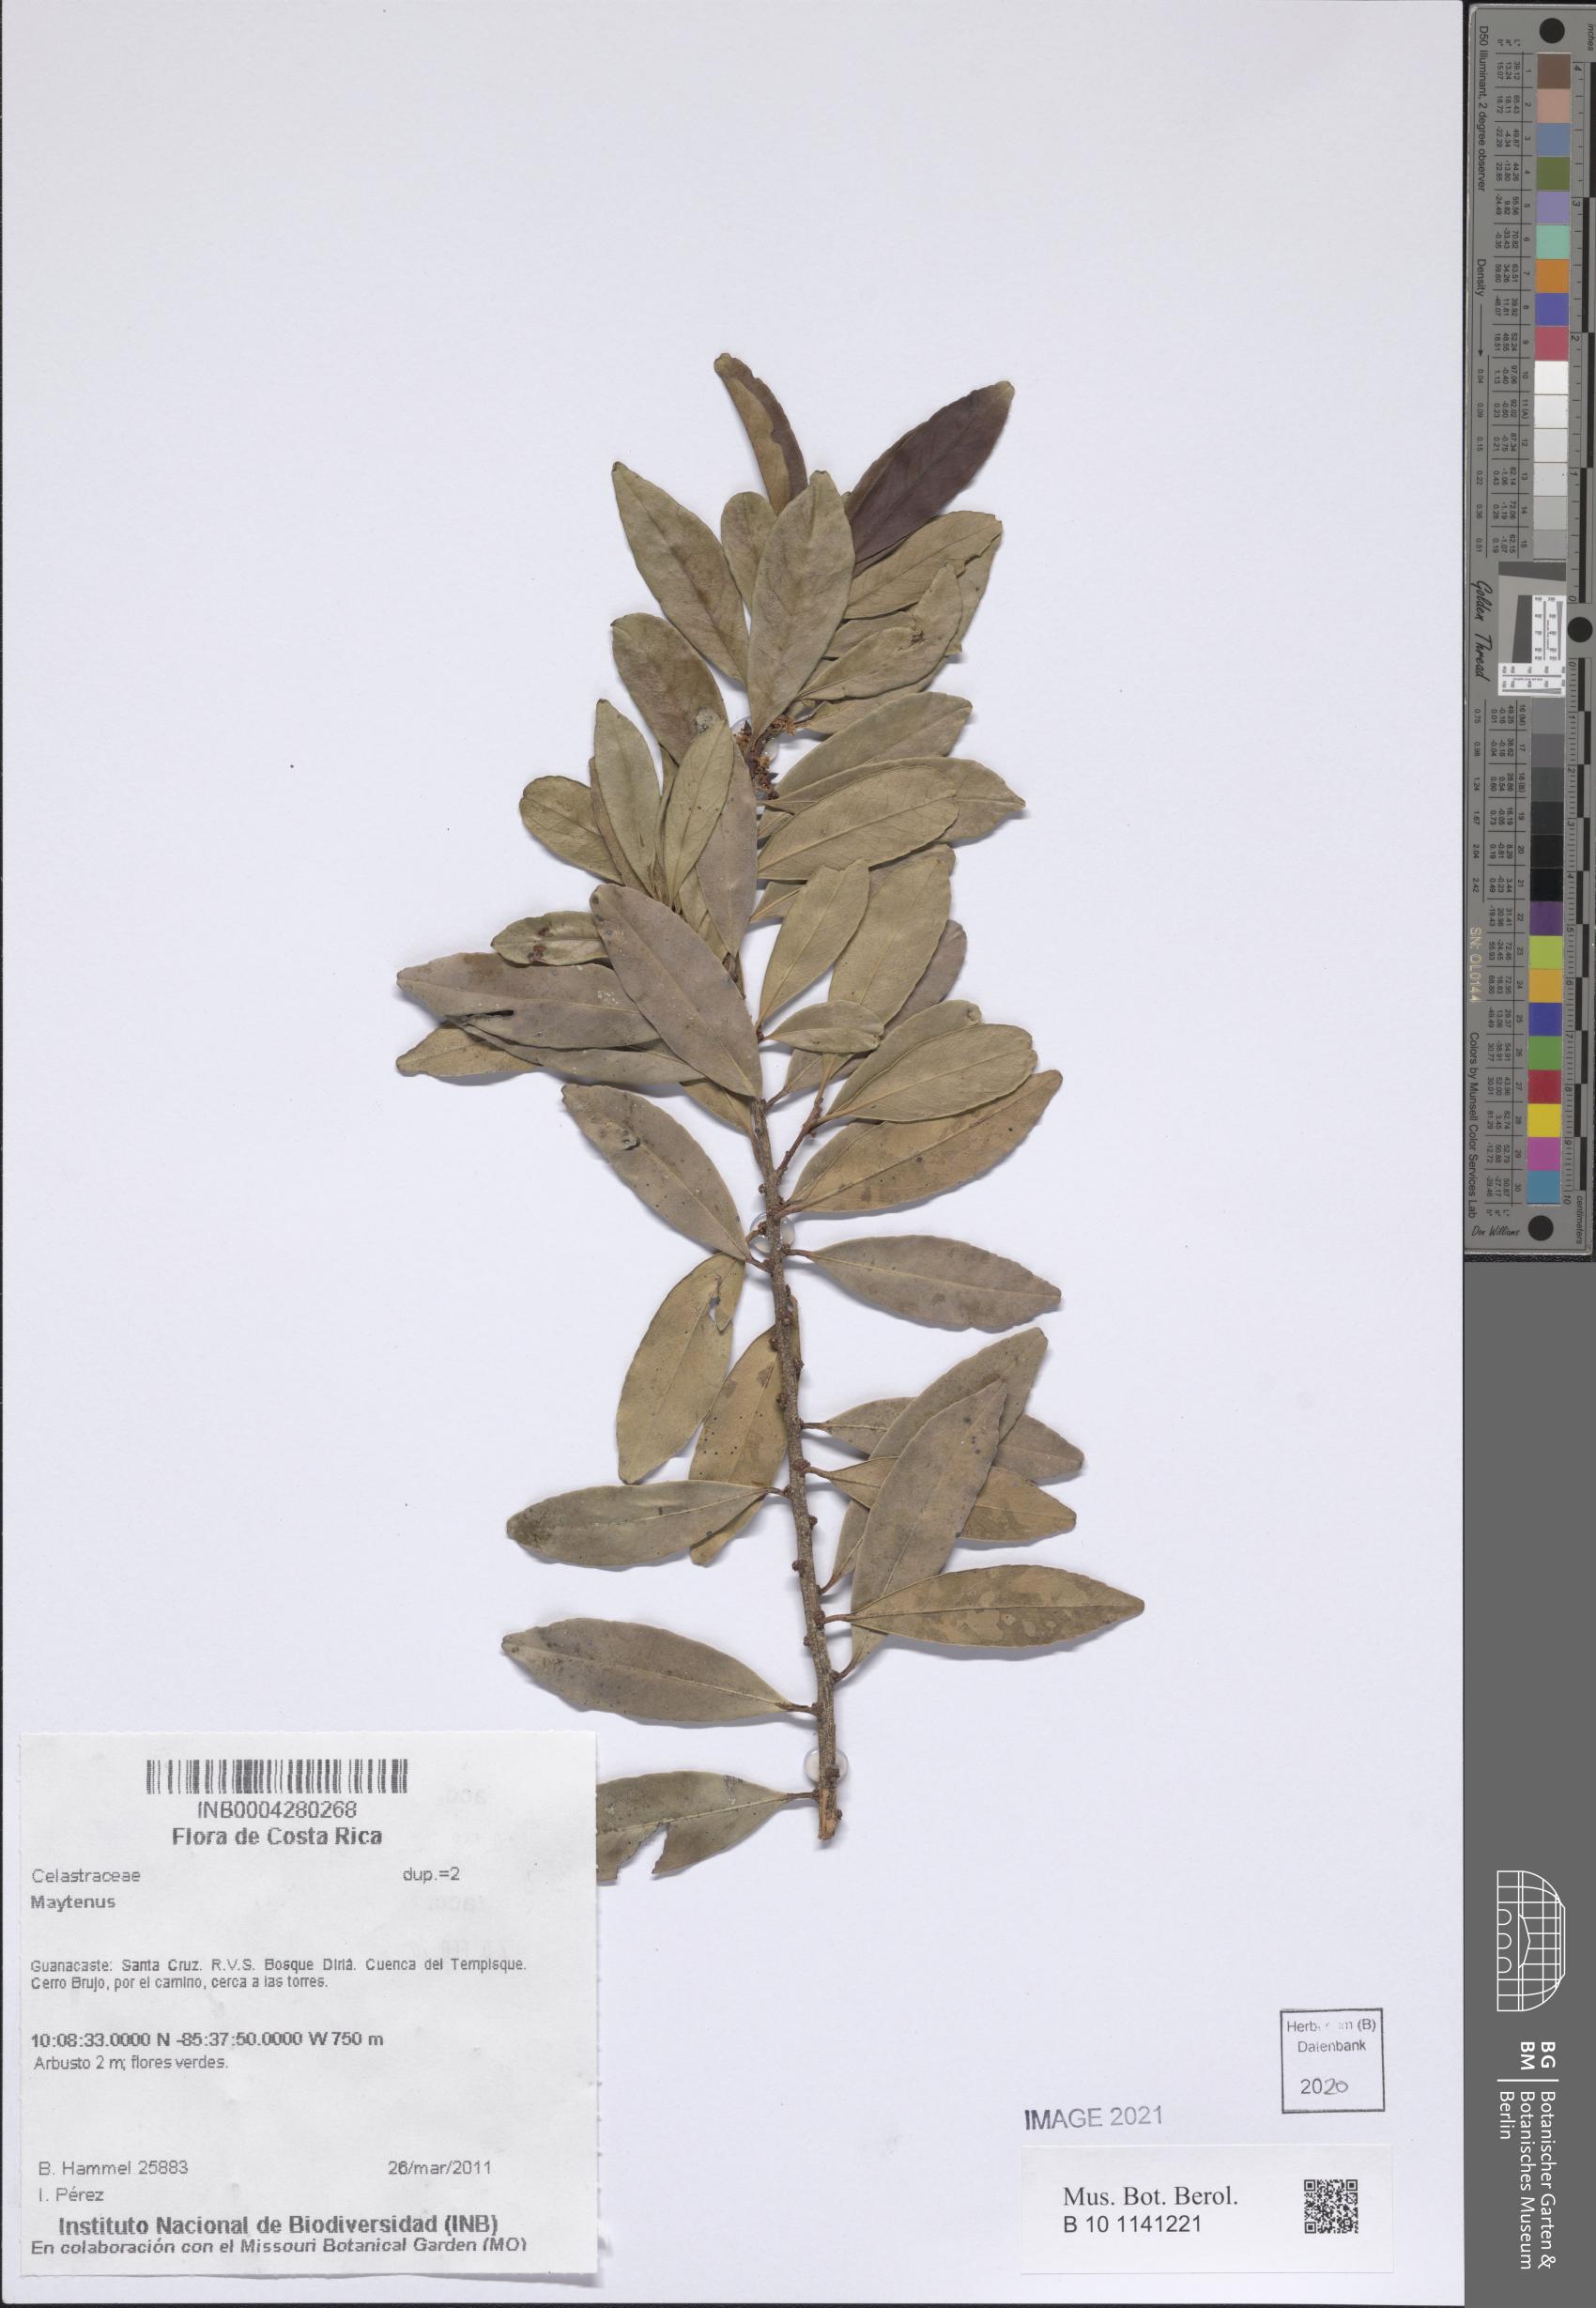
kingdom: Plantae
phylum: Tracheophyta
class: Magnoliopsida
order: Celastrales
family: Celastraceae
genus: Maytenus
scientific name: Maytenus
